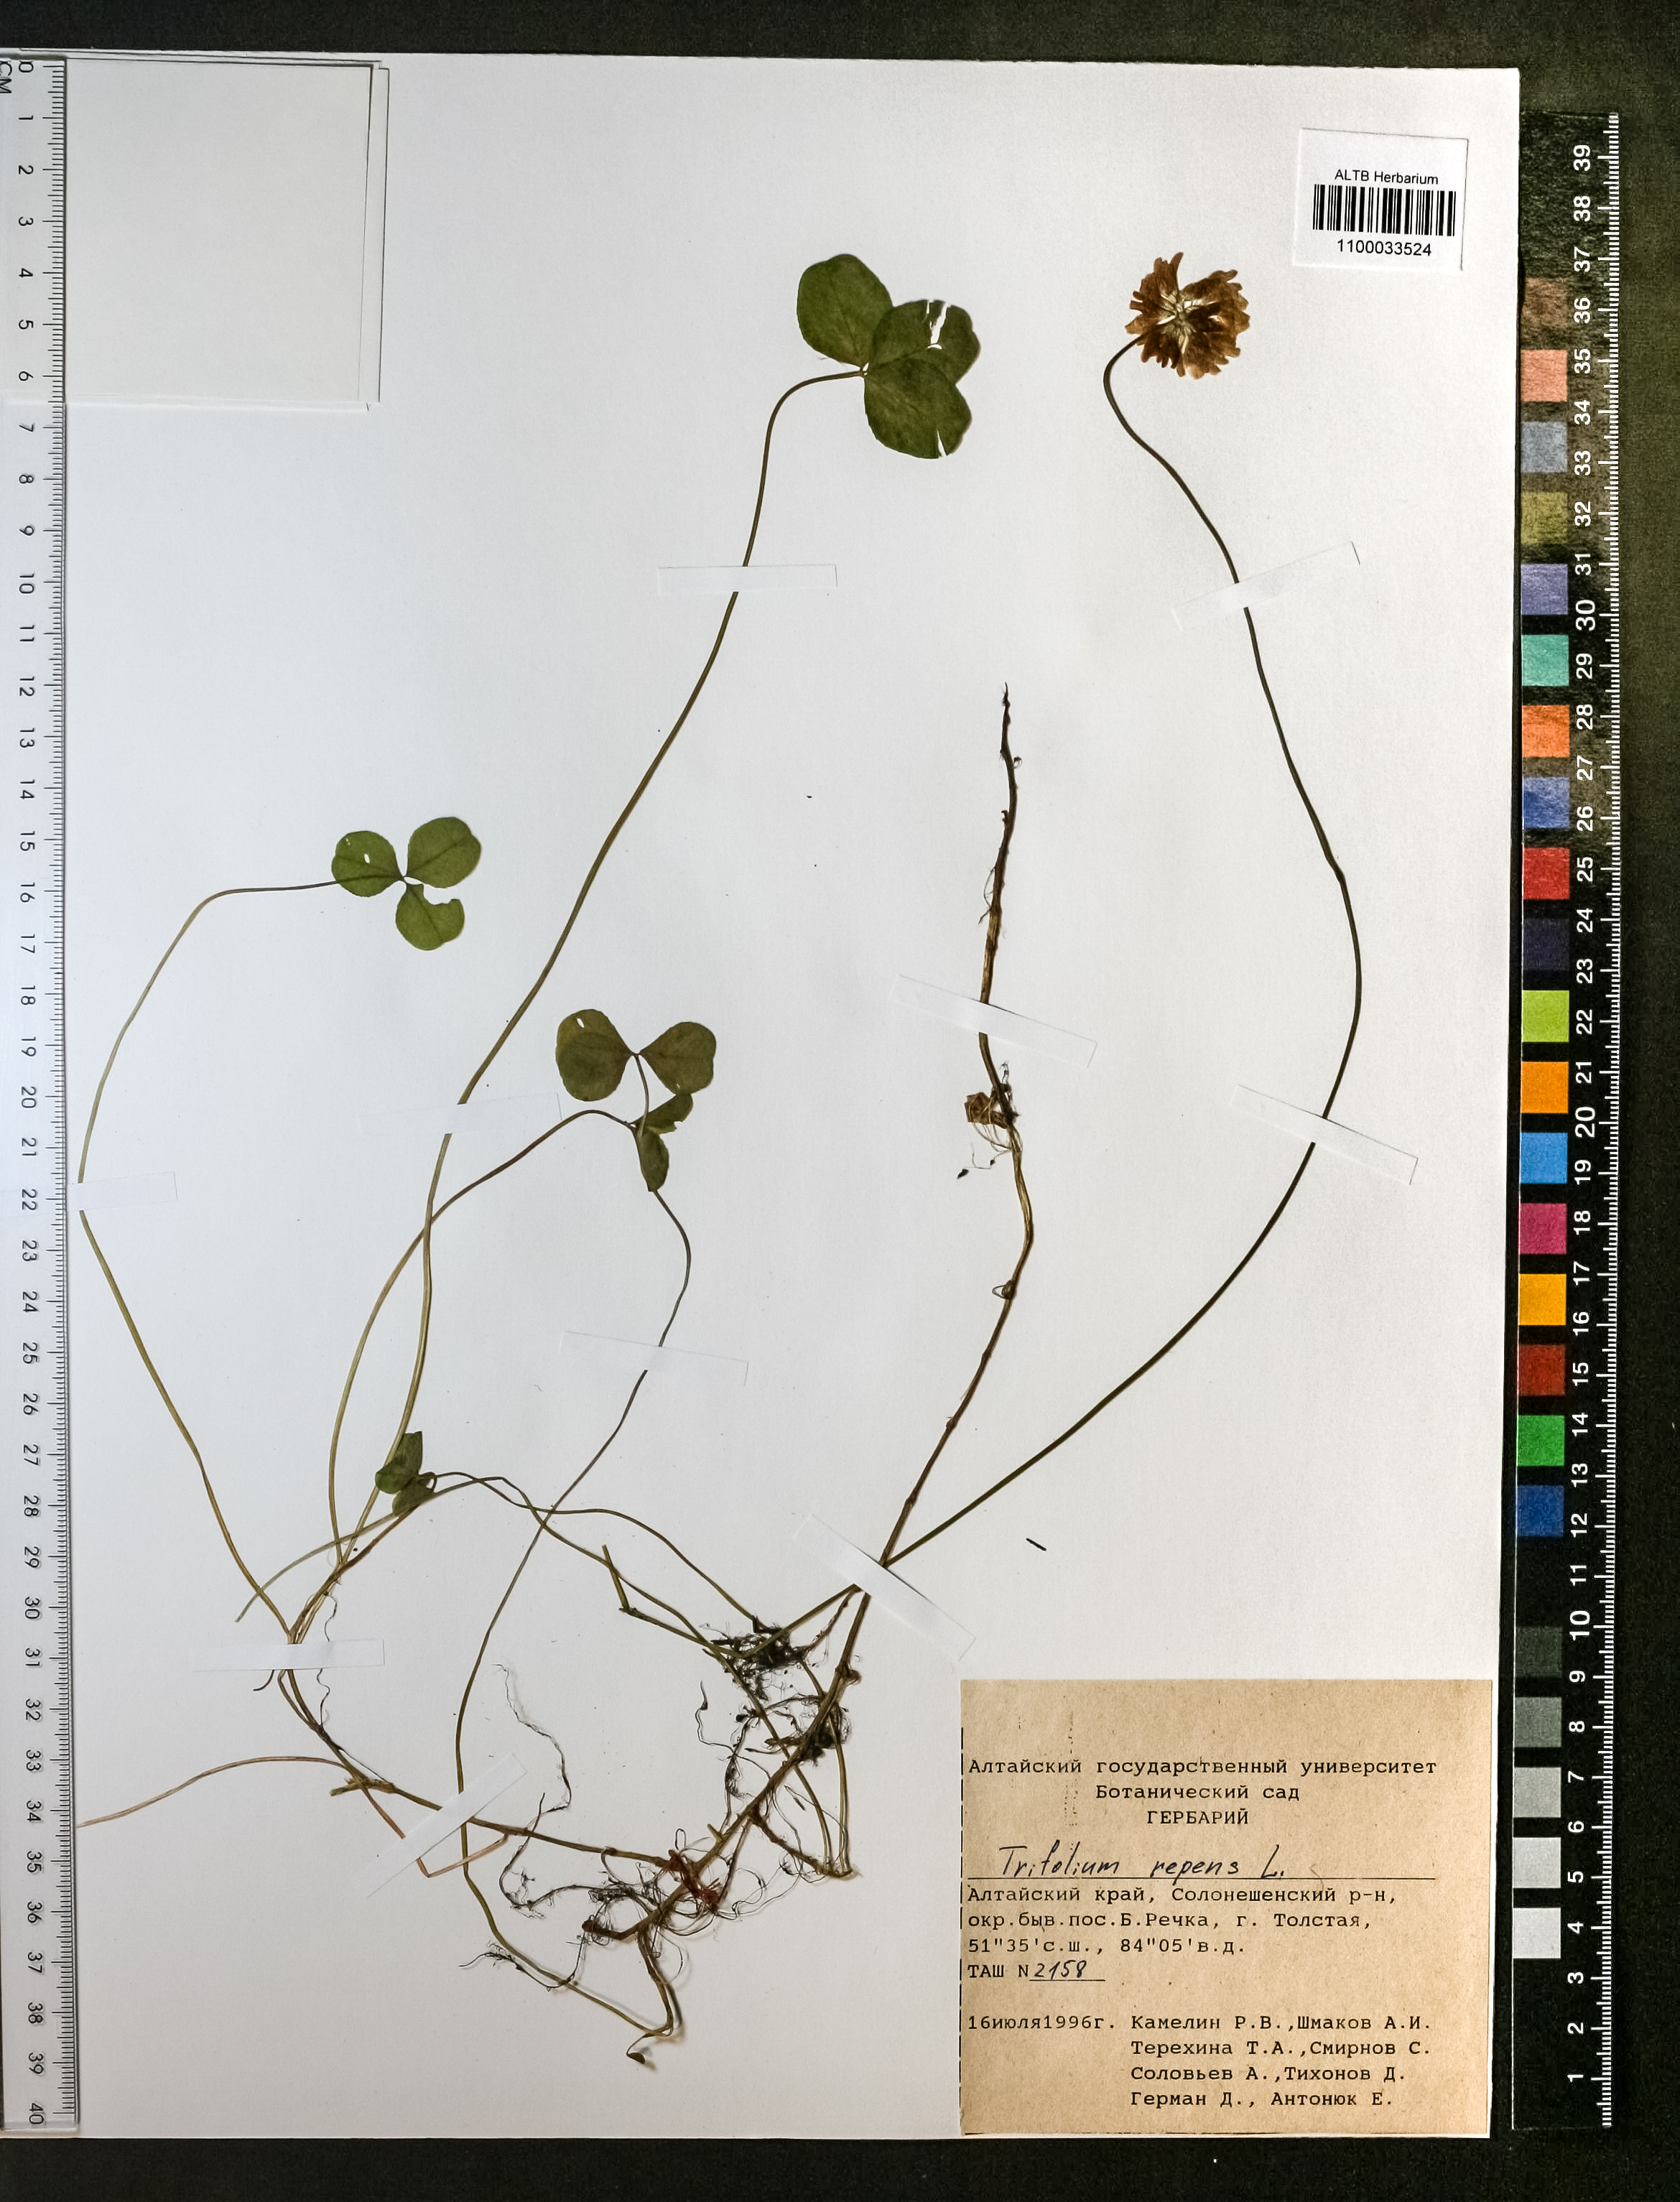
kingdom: Plantae
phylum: Tracheophyta
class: Magnoliopsida
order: Fabales
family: Fabaceae
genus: Trifolium
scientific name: Trifolium repens
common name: White clover
